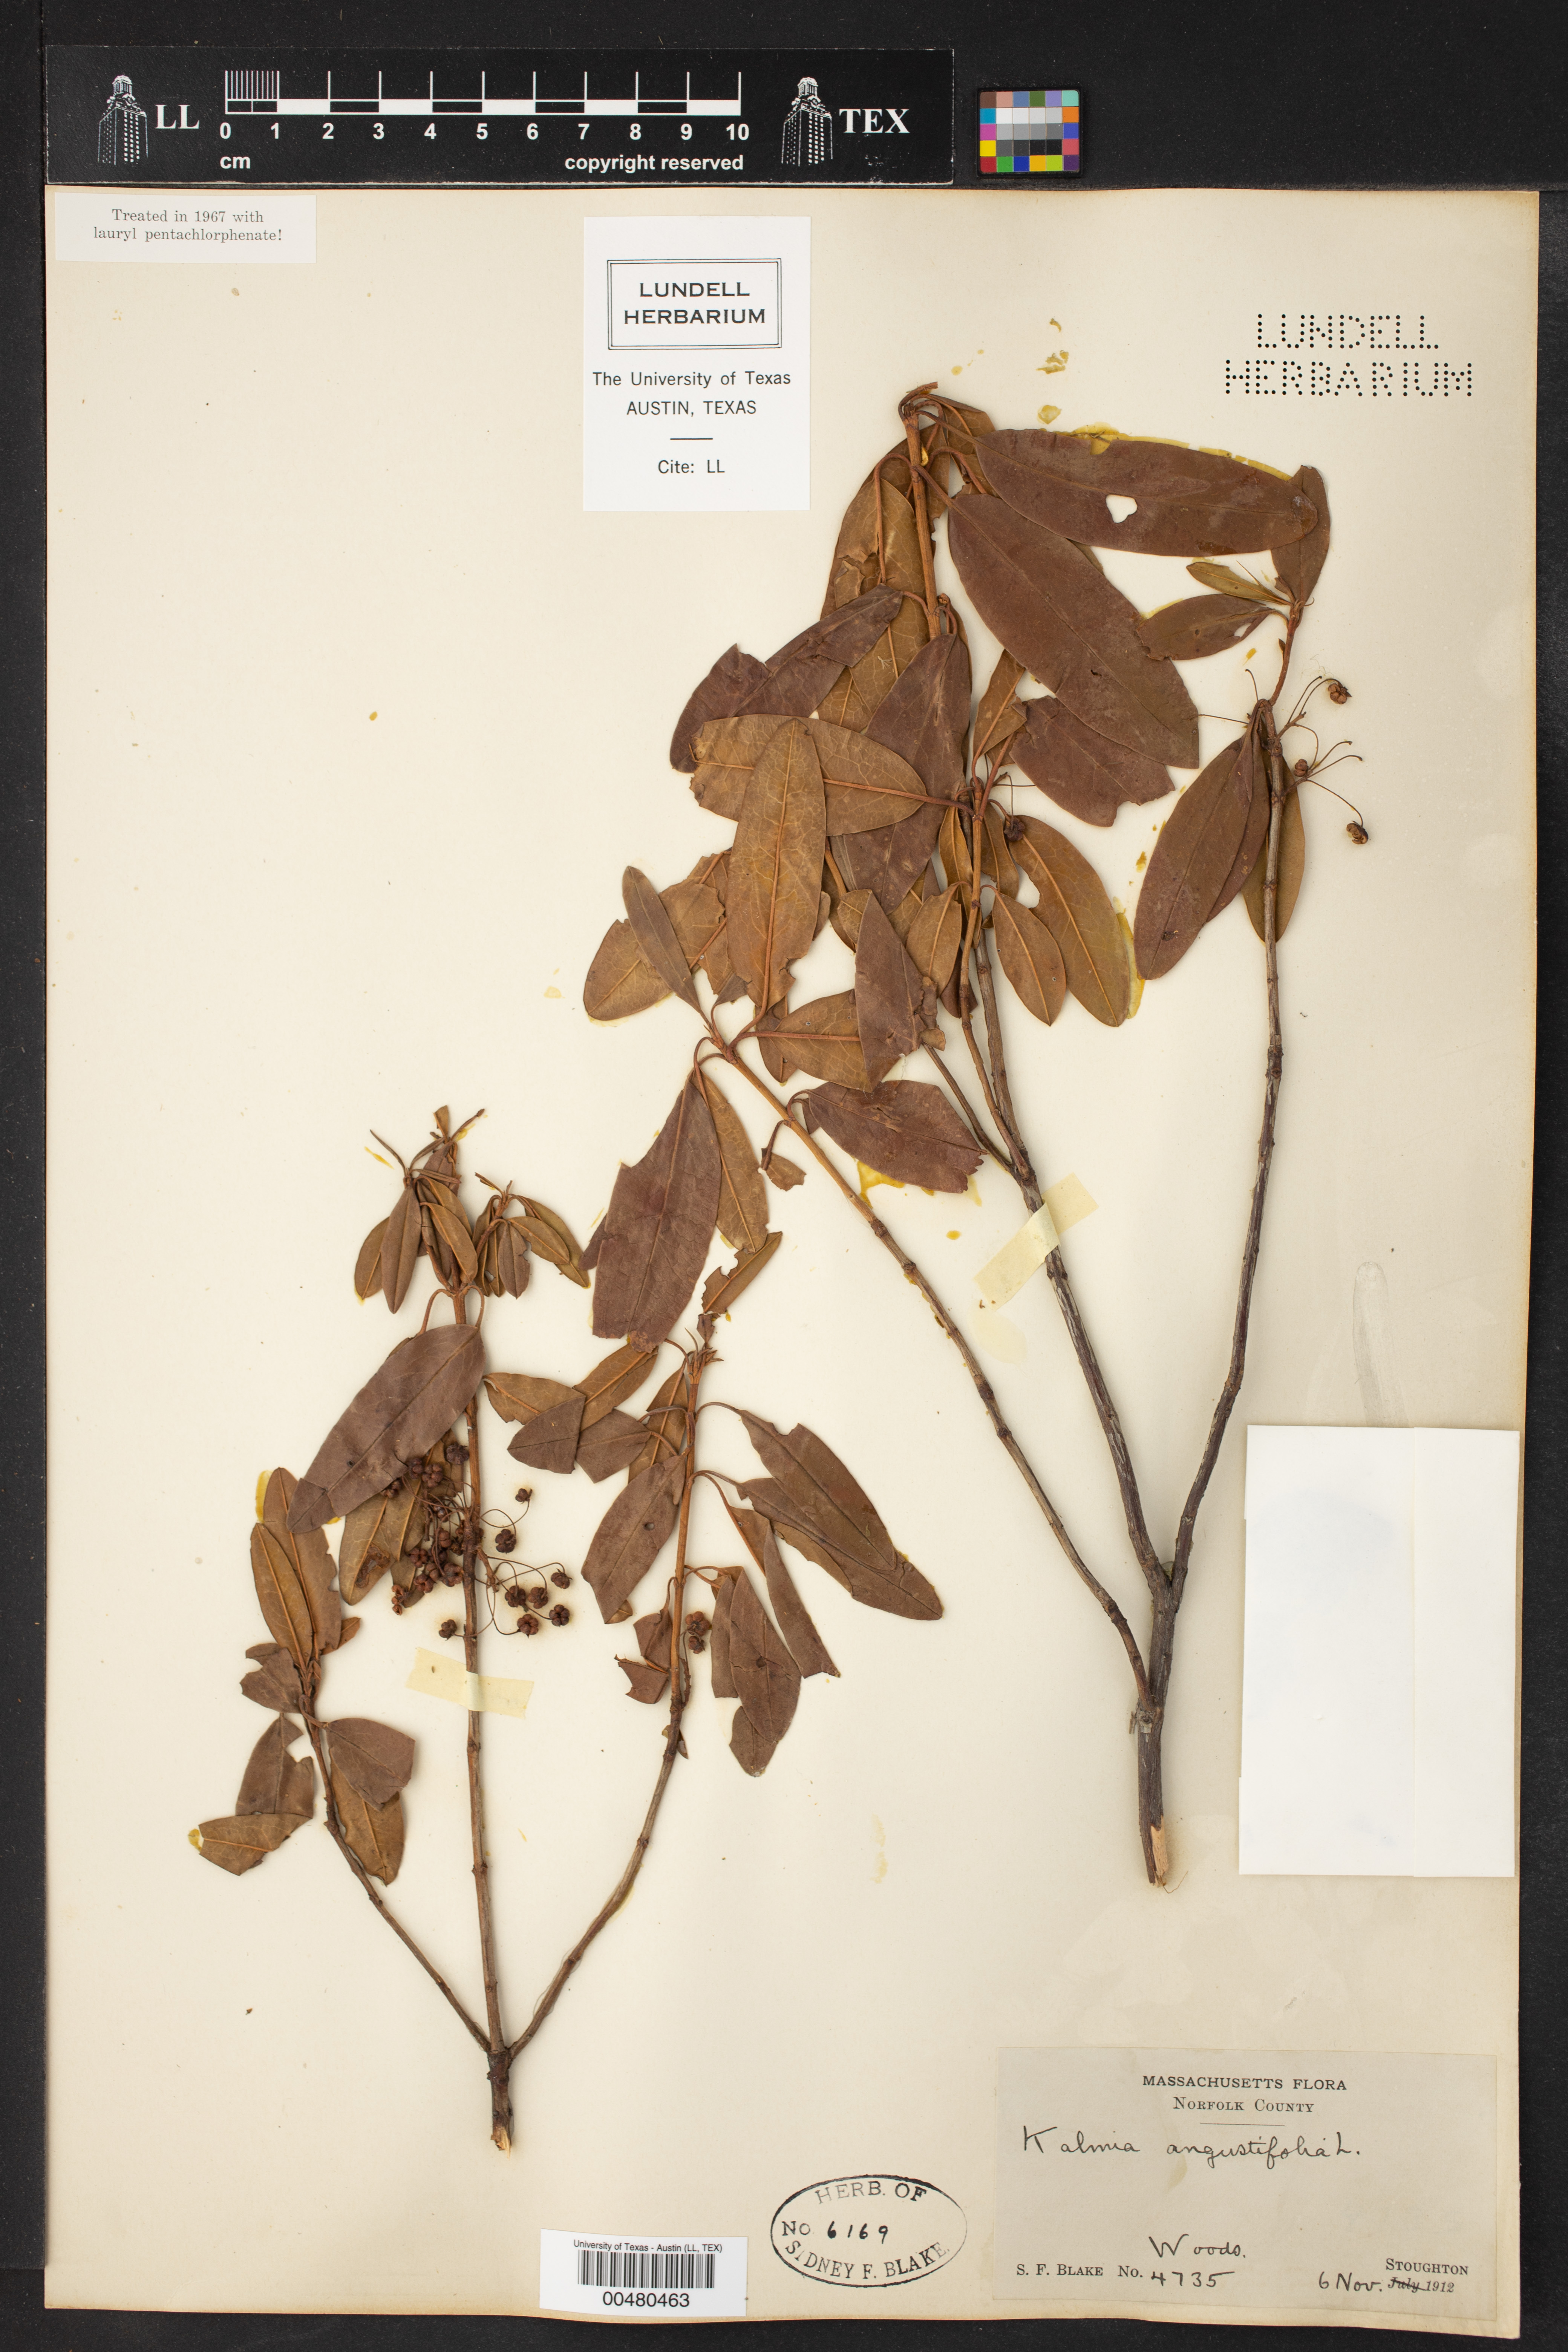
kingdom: Plantae
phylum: Tracheophyta
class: Magnoliopsida
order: Ericales
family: Ericaceae
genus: Kalmia
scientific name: Kalmia angustifolia
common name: Sheep-laurel
